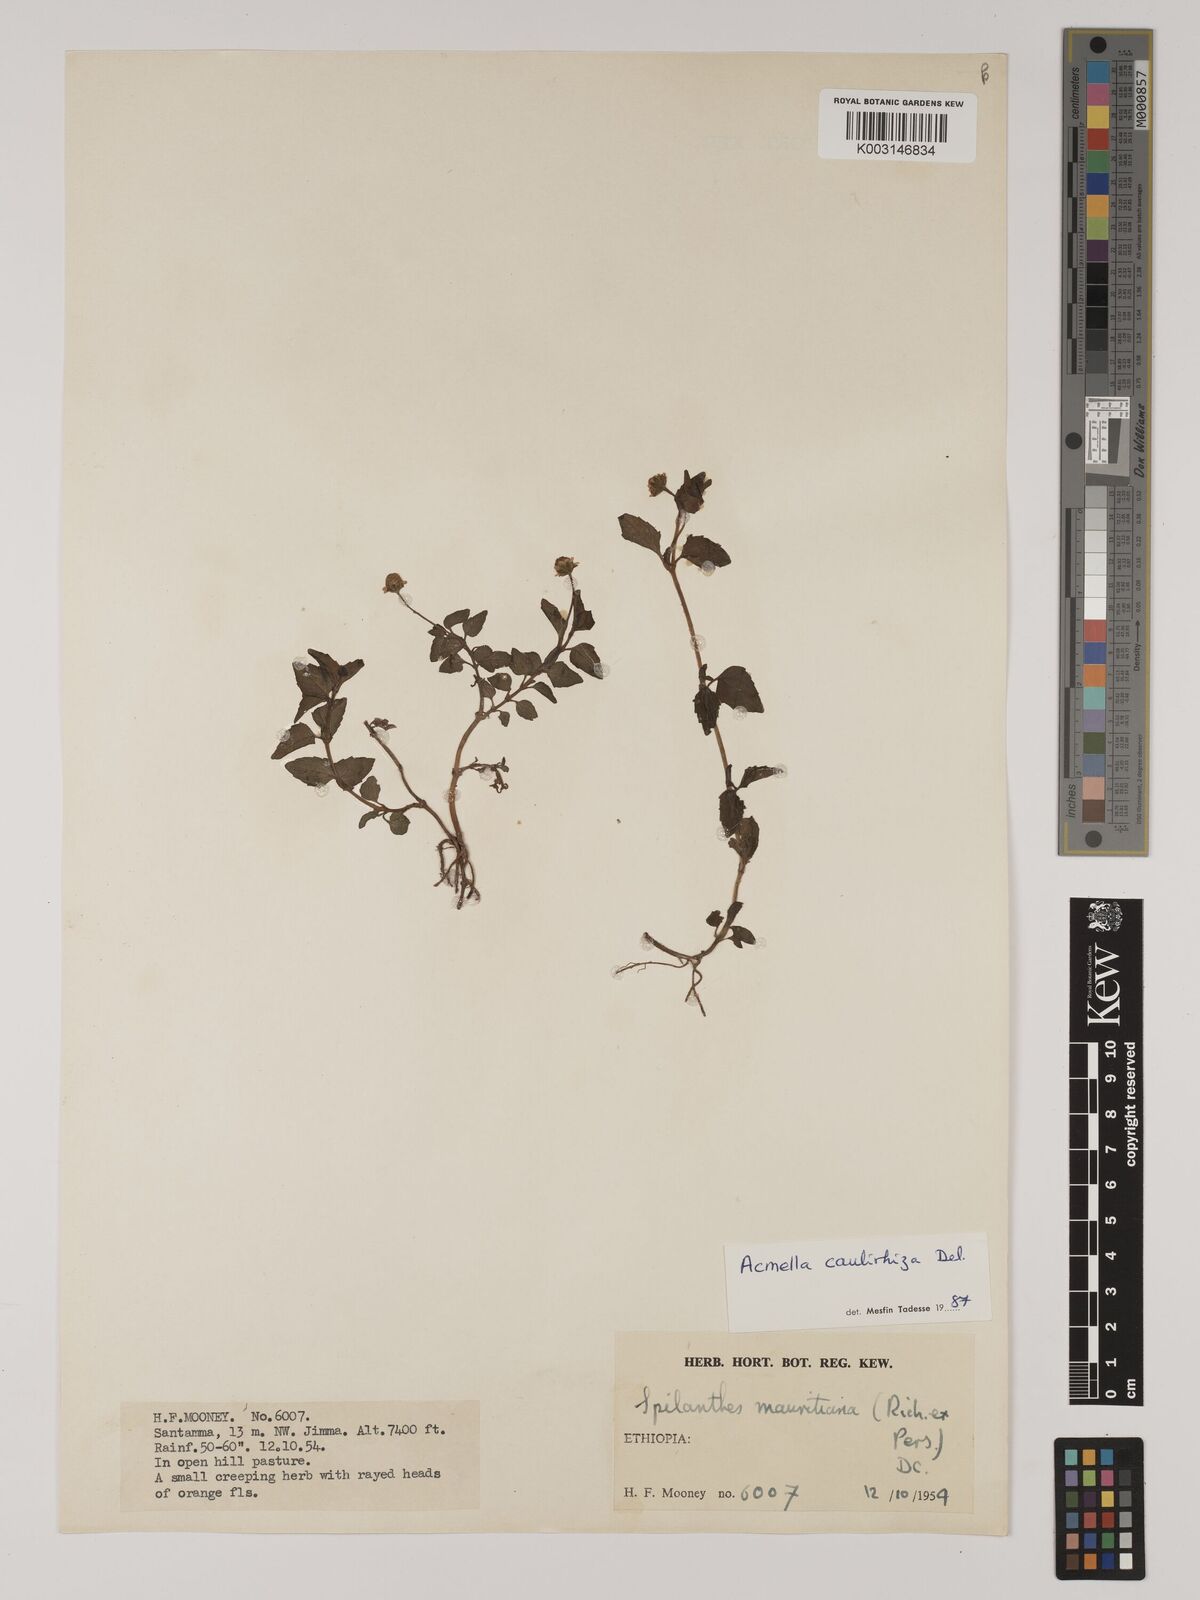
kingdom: Plantae
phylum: Tracheophyta
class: Magnoliopsida
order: Asterales
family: Asteraceae
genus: Acmella
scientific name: Acmella caulirhiza
